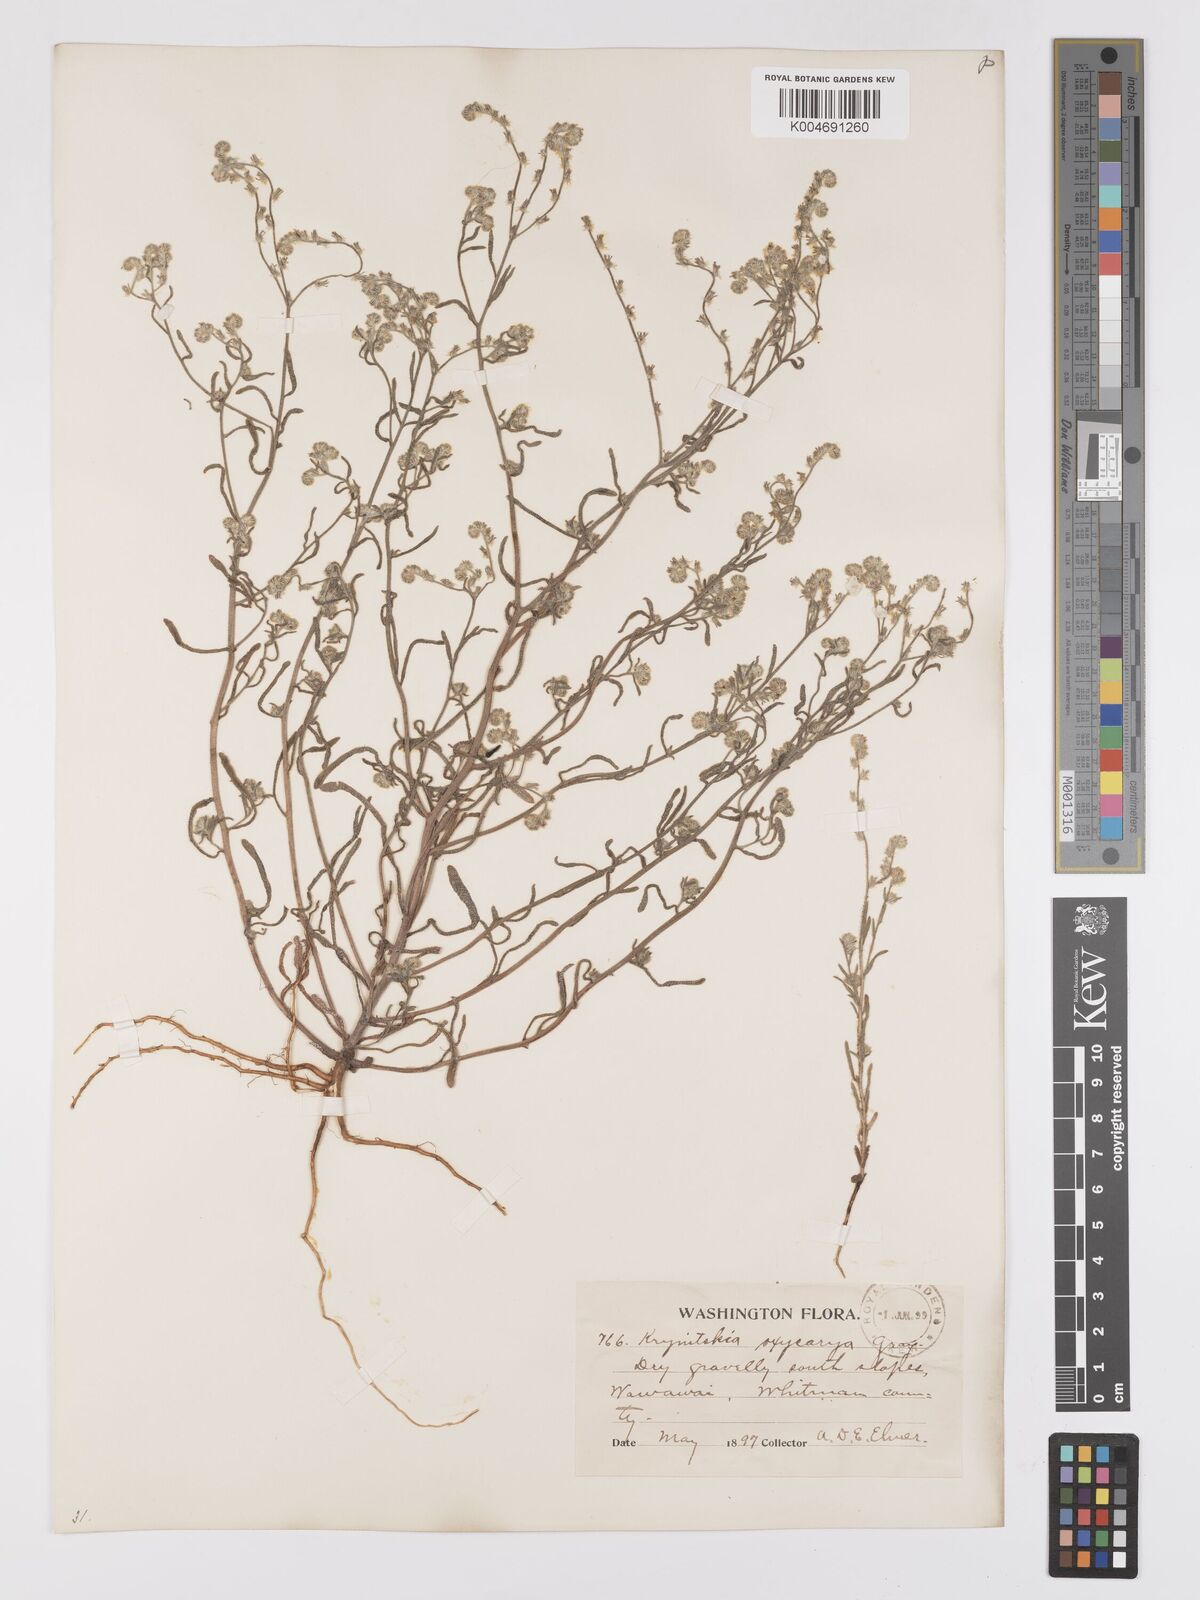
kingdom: Plantae
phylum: Tracheophyta
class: Magnoliopsida
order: Boraginales
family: Boraginaceae
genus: Cryptantha
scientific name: Cryptantha flaccida
